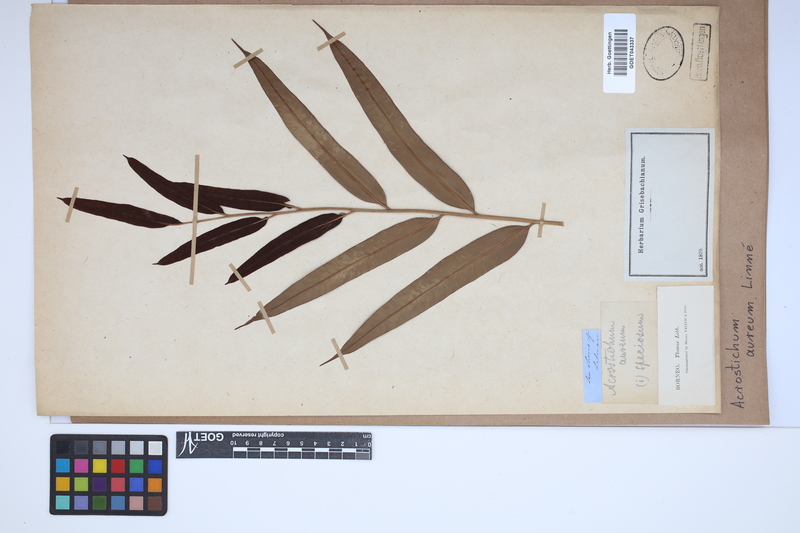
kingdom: Plantae
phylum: Tracheophyta
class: Polypodiopsida
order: Polypodiales
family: Pteridaceae
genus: Acrostichum
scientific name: Acrostichum aureum
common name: Leather fern
